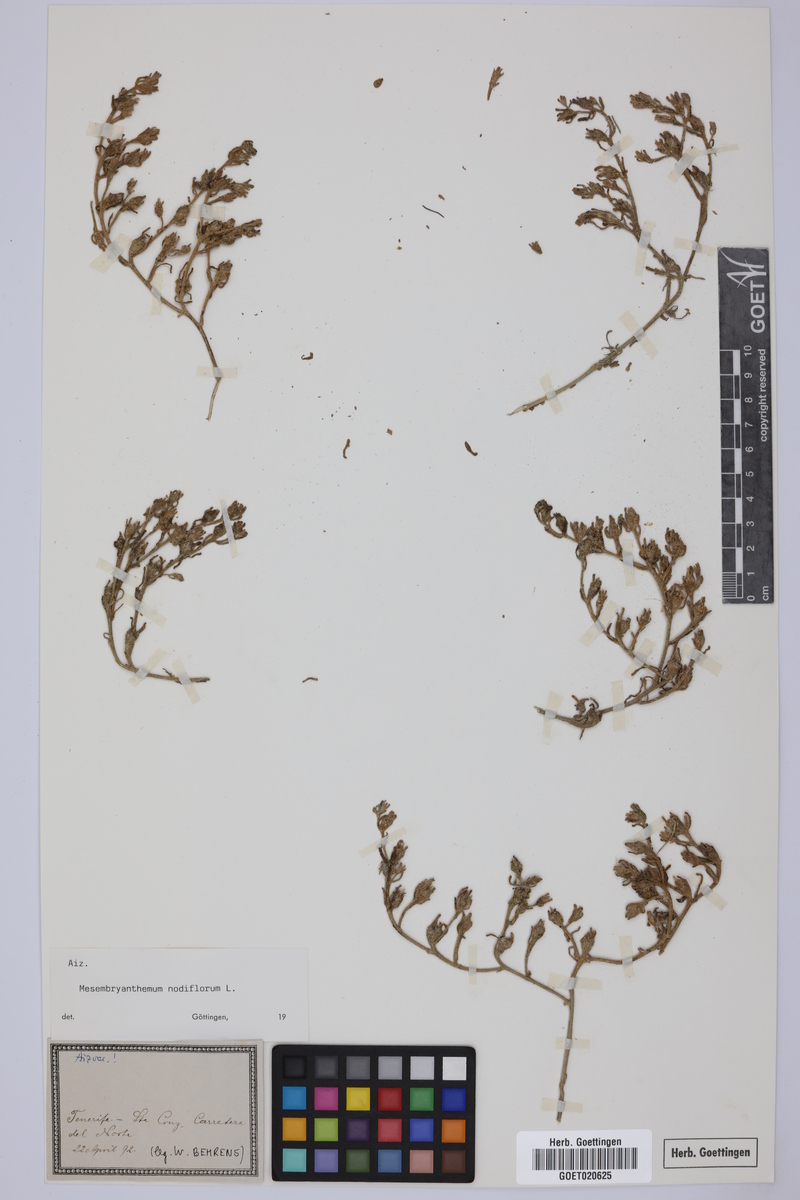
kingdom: Plantae
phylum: Tracheophyta
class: Magnoliopsida
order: Caryophyllales
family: Aizoaceae
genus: Mesembryanthemum
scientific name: Mesembryanthemum nodiflorum
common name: Slenderleaf iceplant
